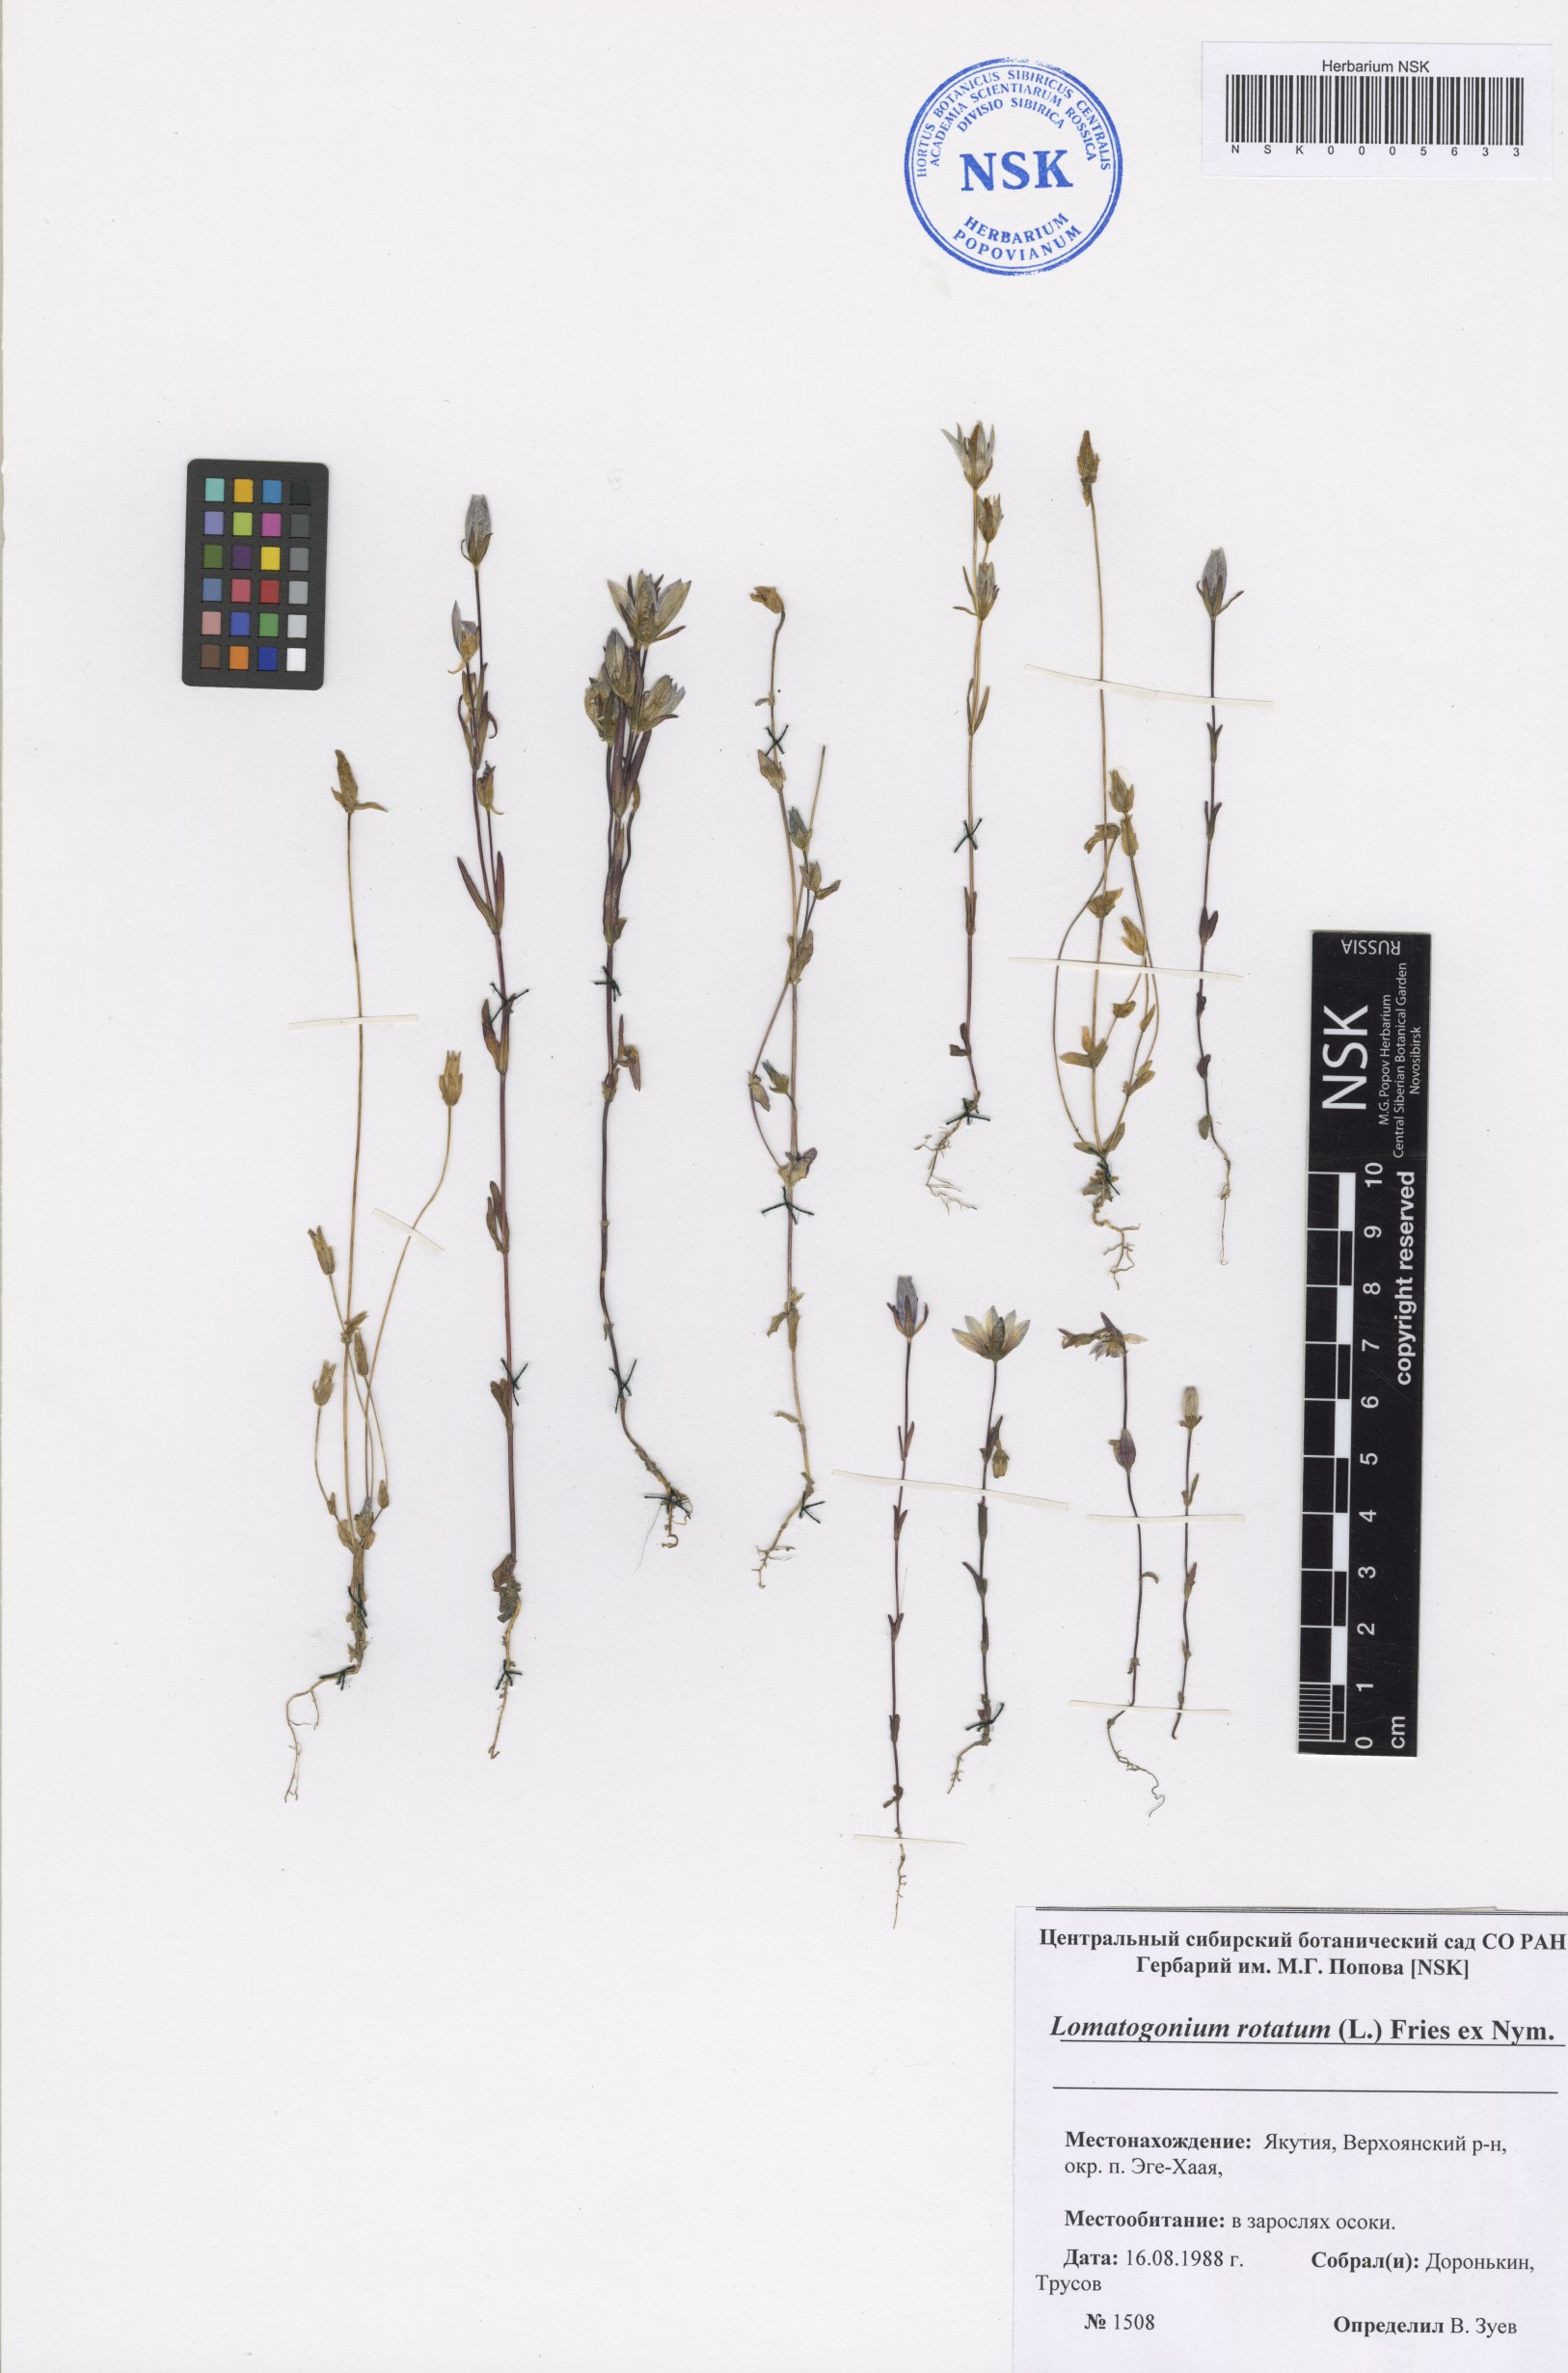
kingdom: Plantae
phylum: Tracheophyta
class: Magnoliopsida
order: Gentianales
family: Gentianaceae
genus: Lomatogonium
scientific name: Lomatogonium rotatum
